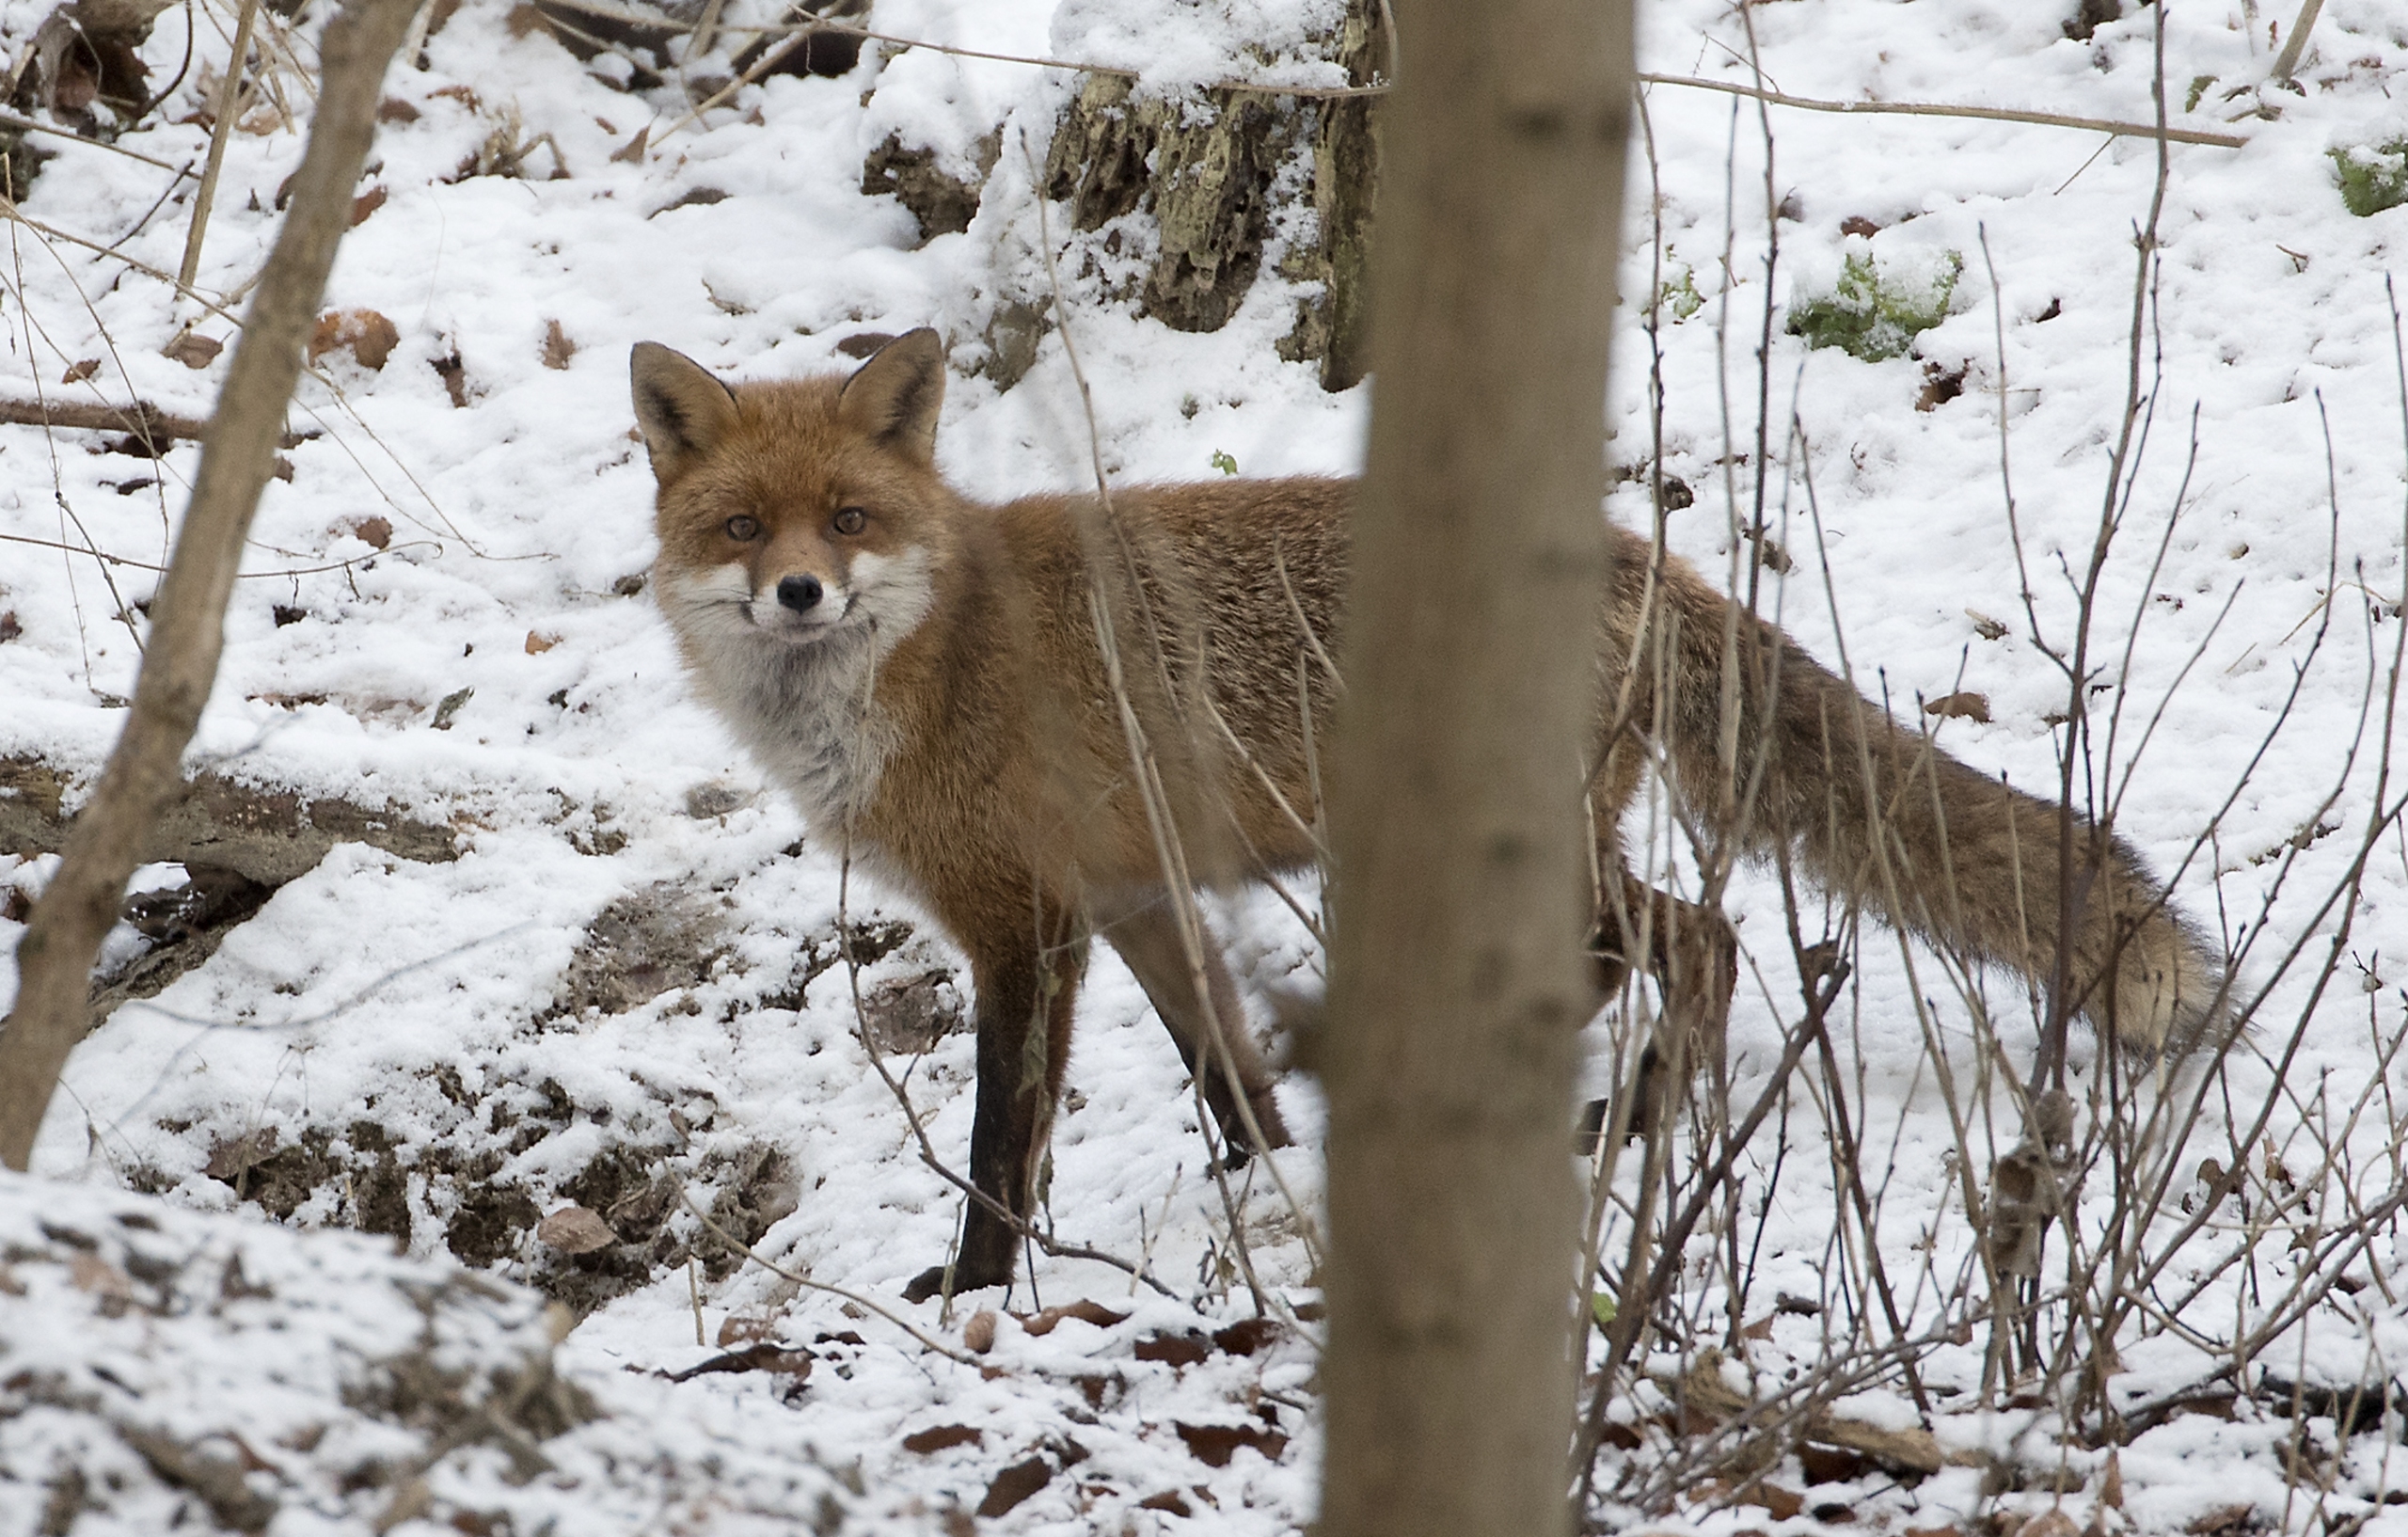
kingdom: Animalia
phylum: Chordata
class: Mammalia
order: Carnivora
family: Canidae
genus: Vulpes
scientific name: Vulpes vulpes
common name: Ræv
